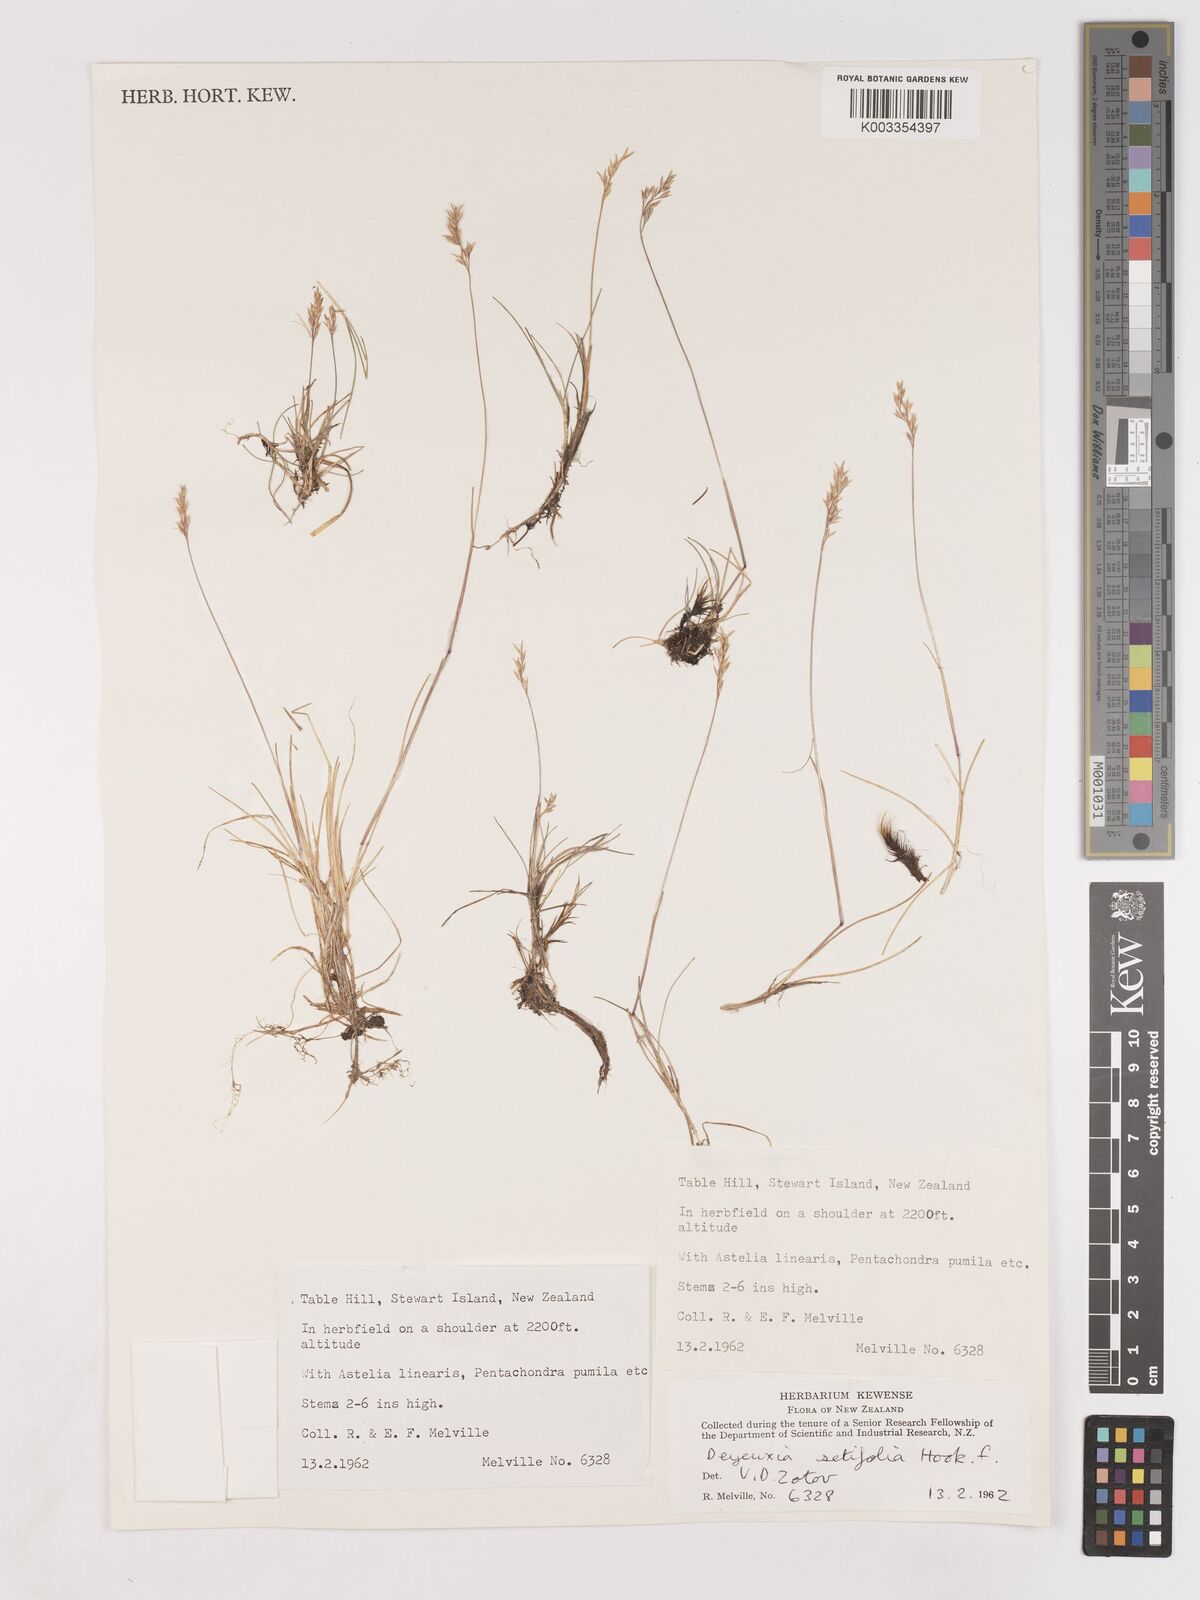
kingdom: Plantae
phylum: Tracheophyta
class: Liliopsida
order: Poales
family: Poaceae
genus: Agrostis
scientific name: Agrostis aucklandica
